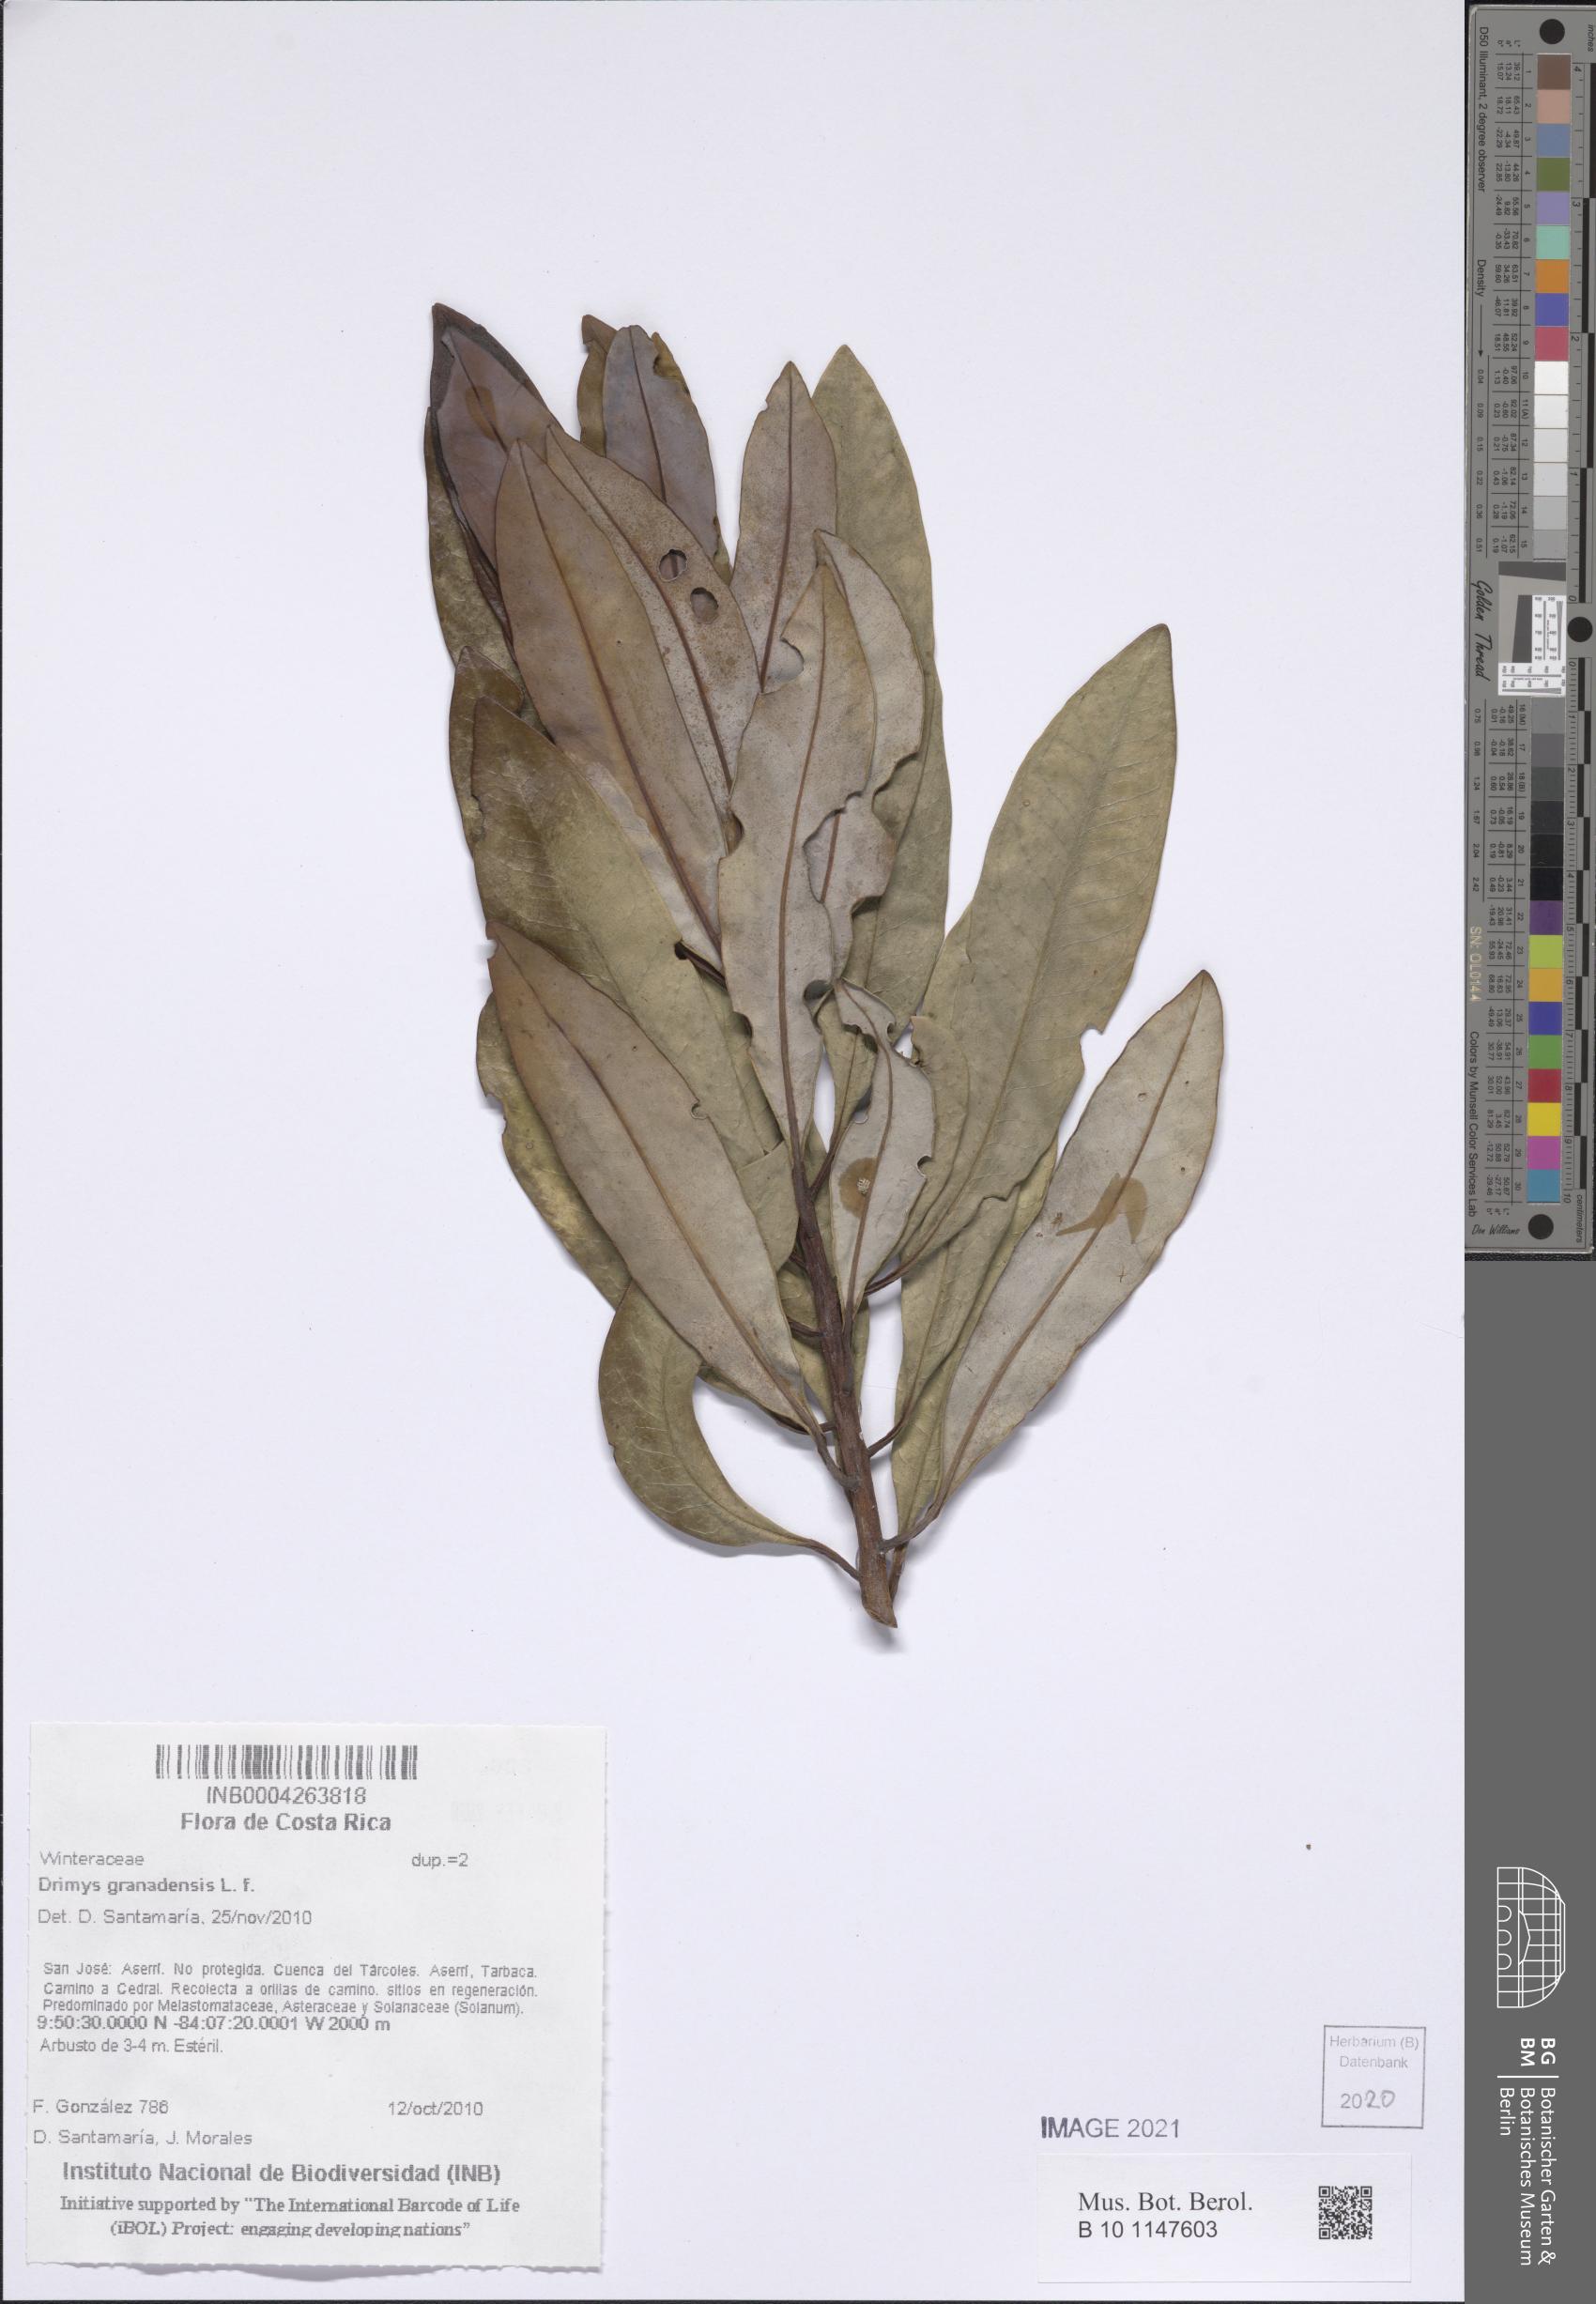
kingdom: Plantae
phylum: Tracheophyta
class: Magnoliopsida
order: Canellales
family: Winteraceae
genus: Drimys
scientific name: Drimys granadensis
